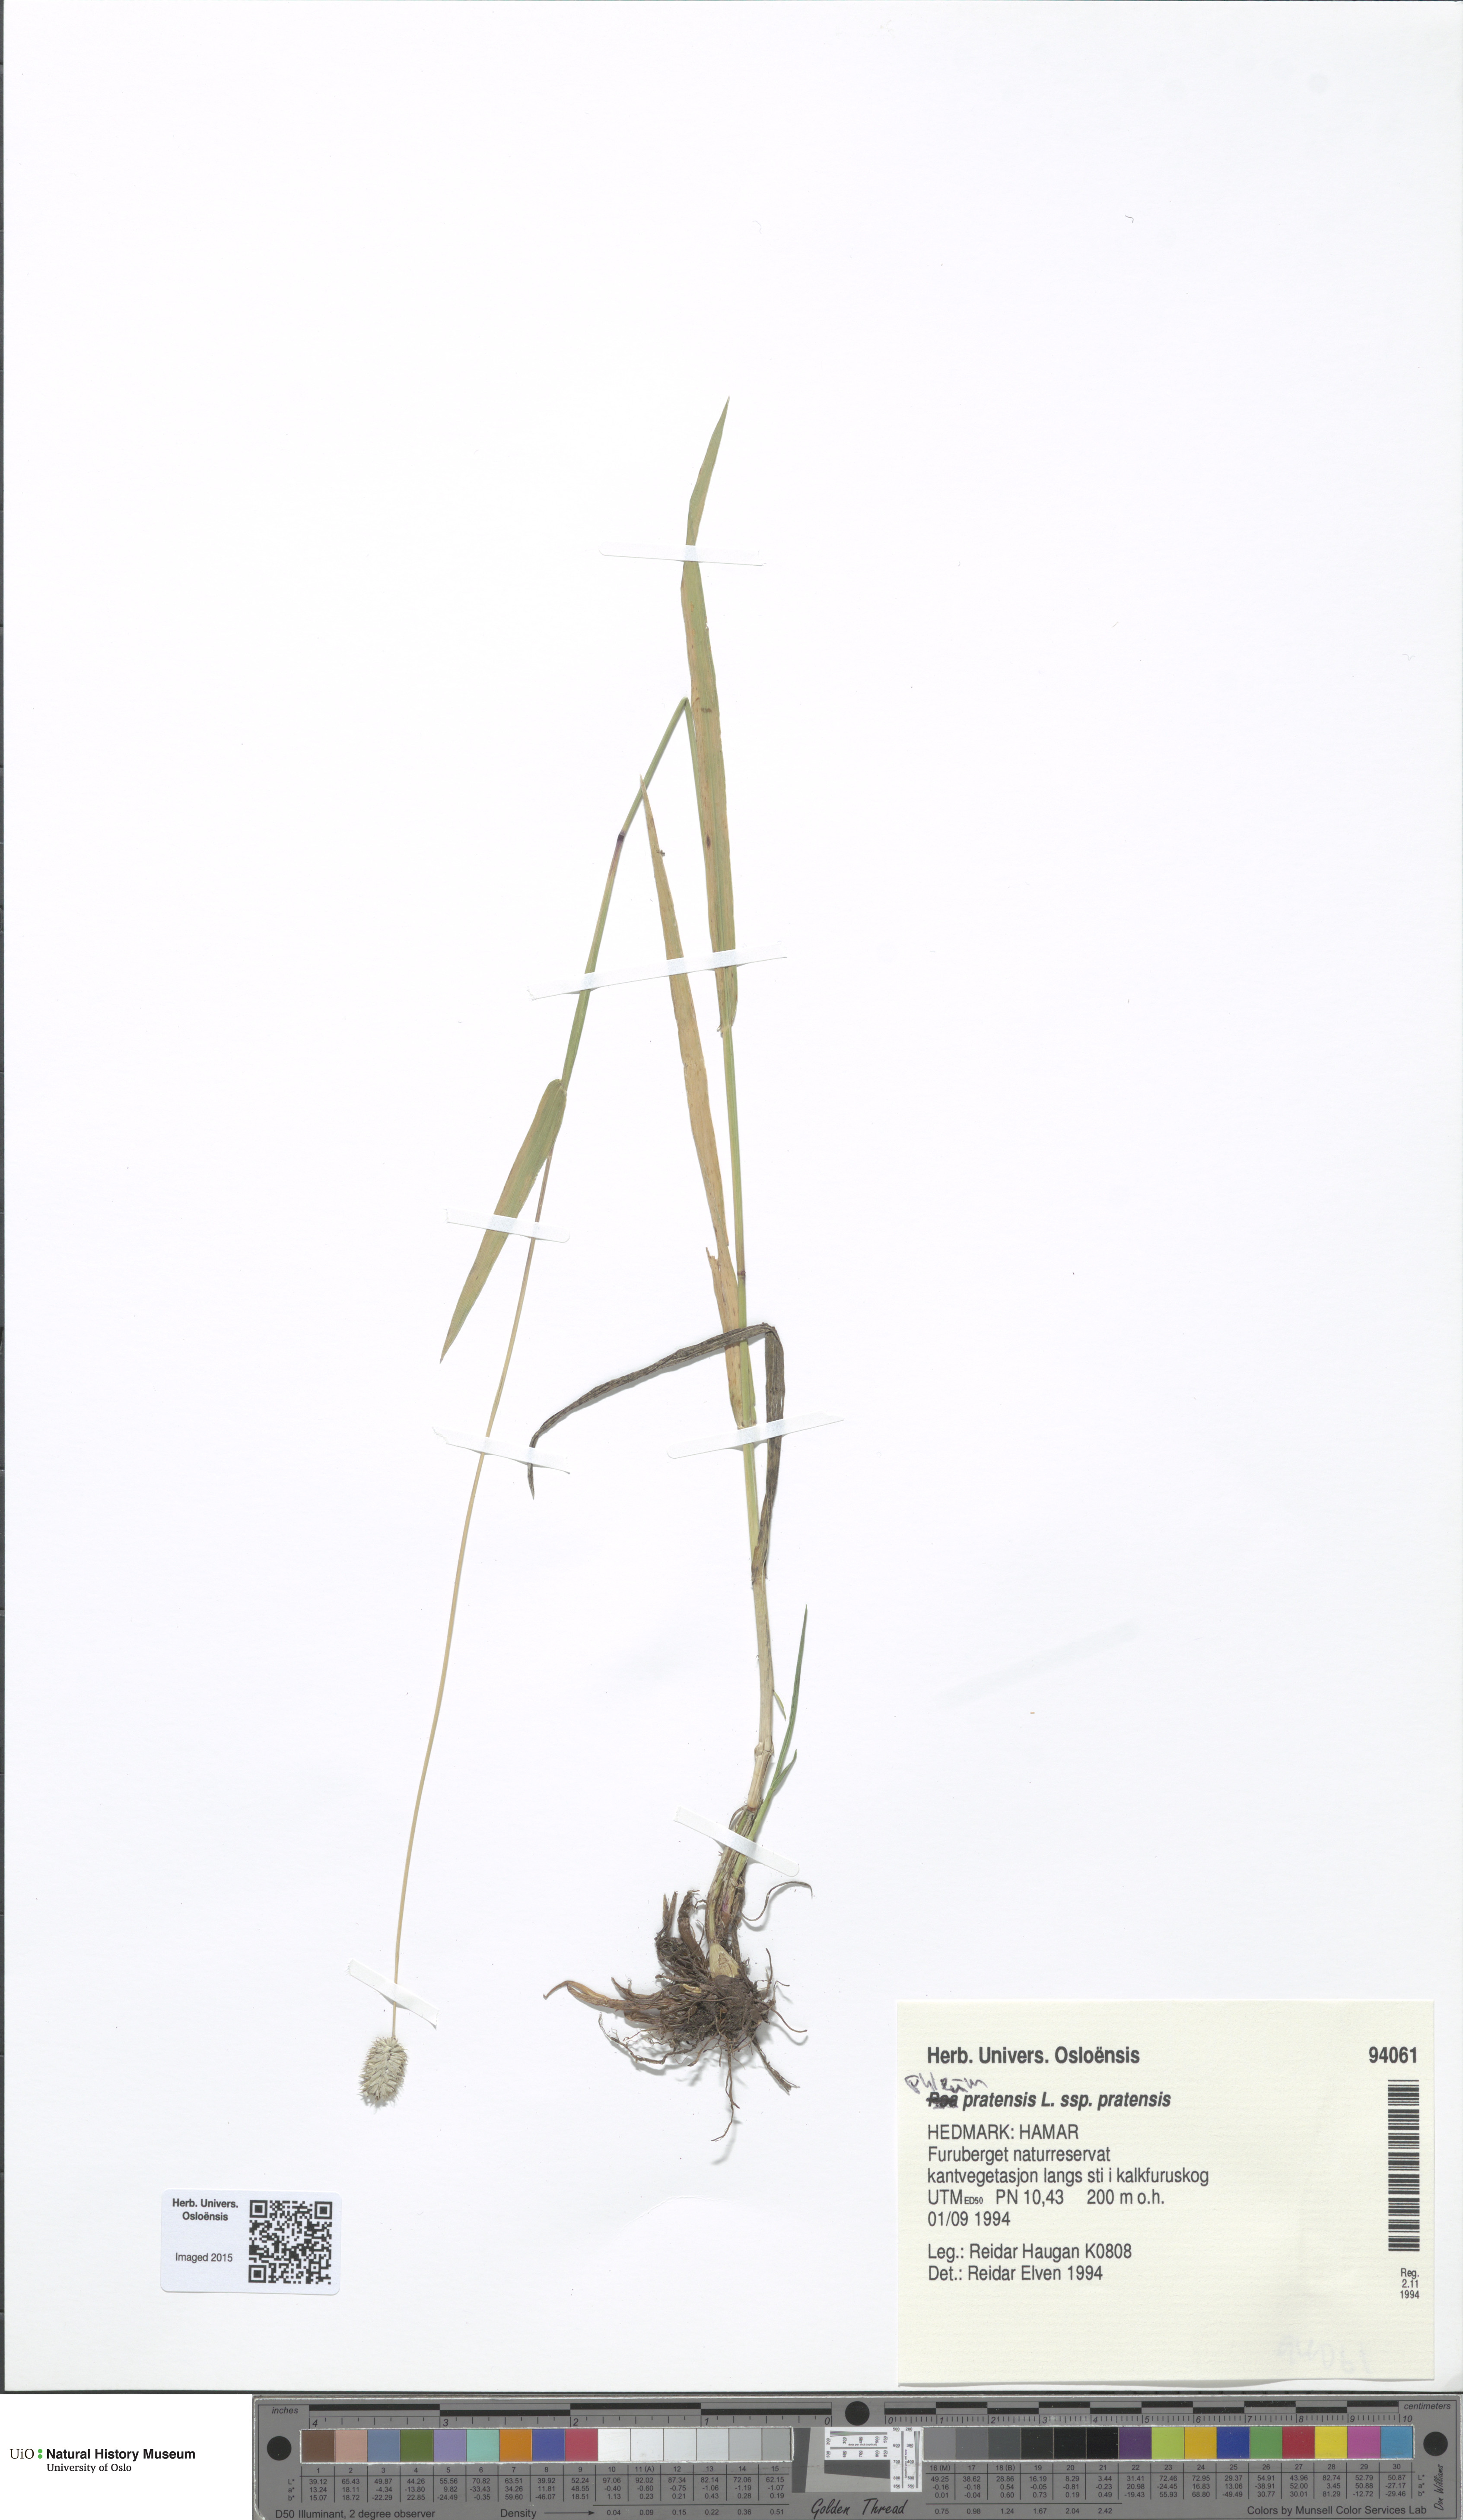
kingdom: Plantae
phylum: Tracheophyta
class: Liliopsida
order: Poales
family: Poaceae
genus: Phleum
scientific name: Phleum pratense
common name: Timothy grass
